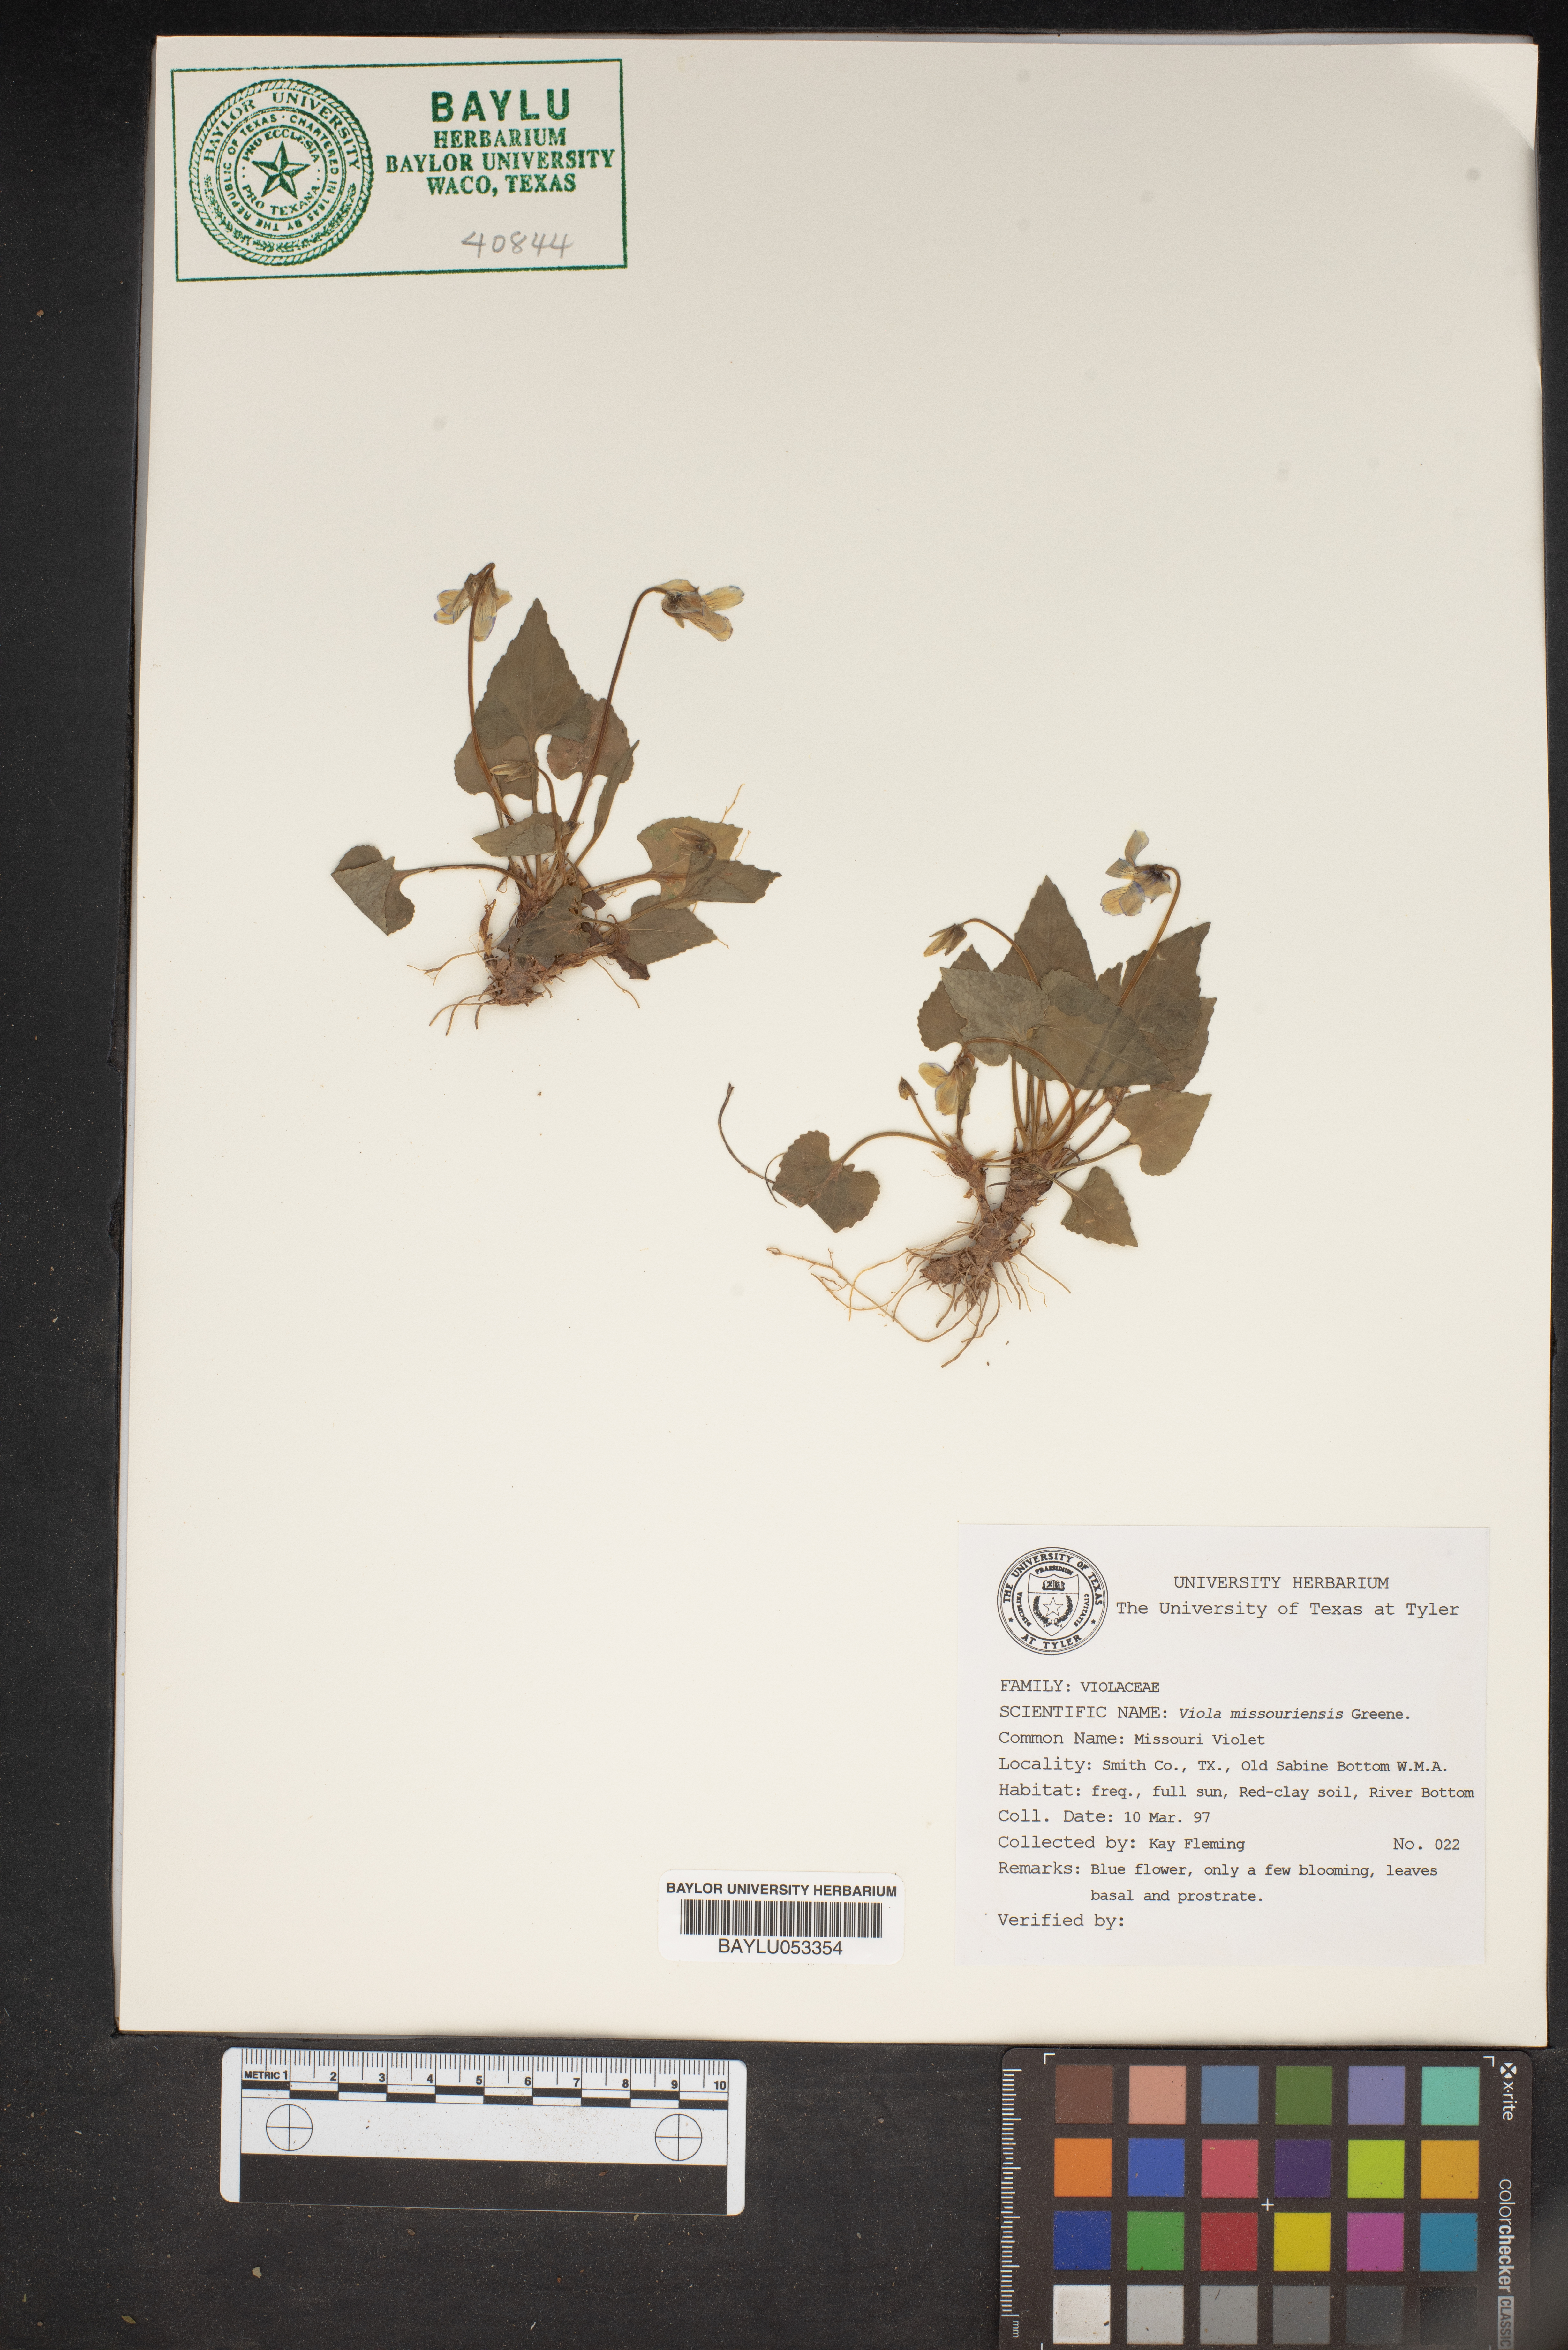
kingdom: Plantae
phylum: Tracheophyta
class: Magnoliopsida
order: Malpighiales
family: Violaceae
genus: Viola
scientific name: Viola missouriensis
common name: Missouri violet
